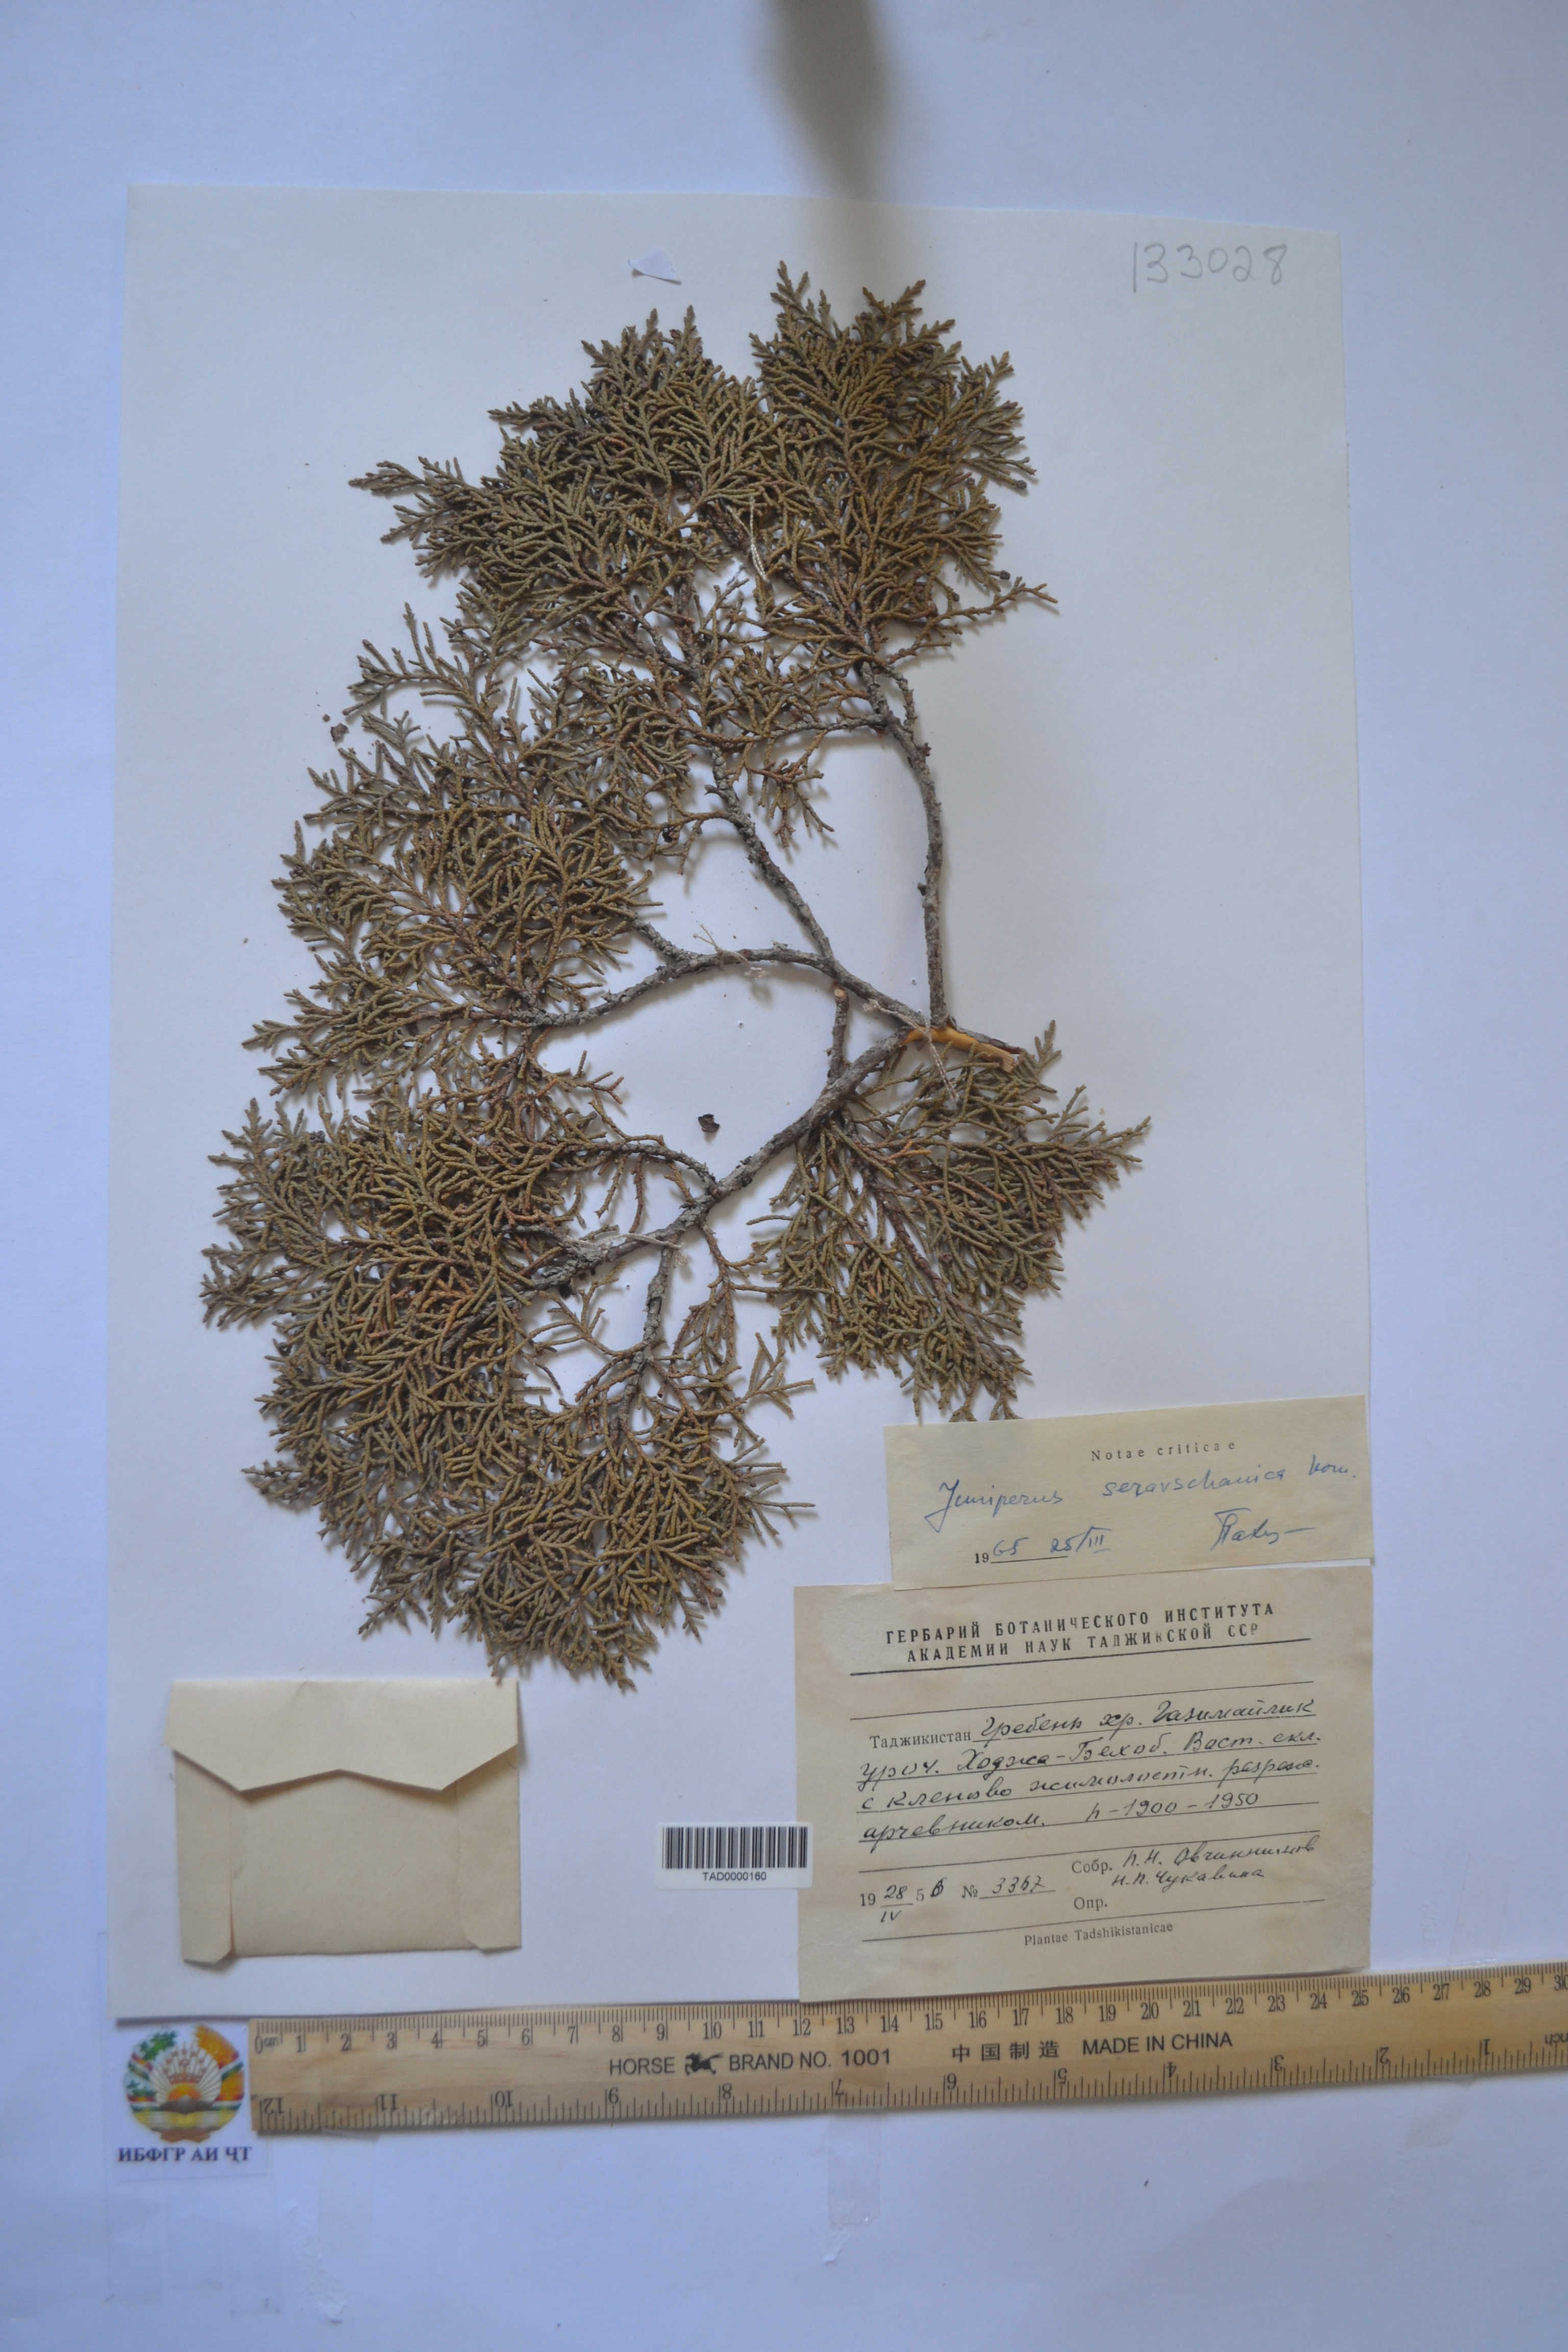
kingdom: Plantae
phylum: Tracheophyta
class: Pinopsida
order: Pinales
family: Cupressaceae
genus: Juniperus
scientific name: Juniperus excelsa
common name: Crimean juniper
